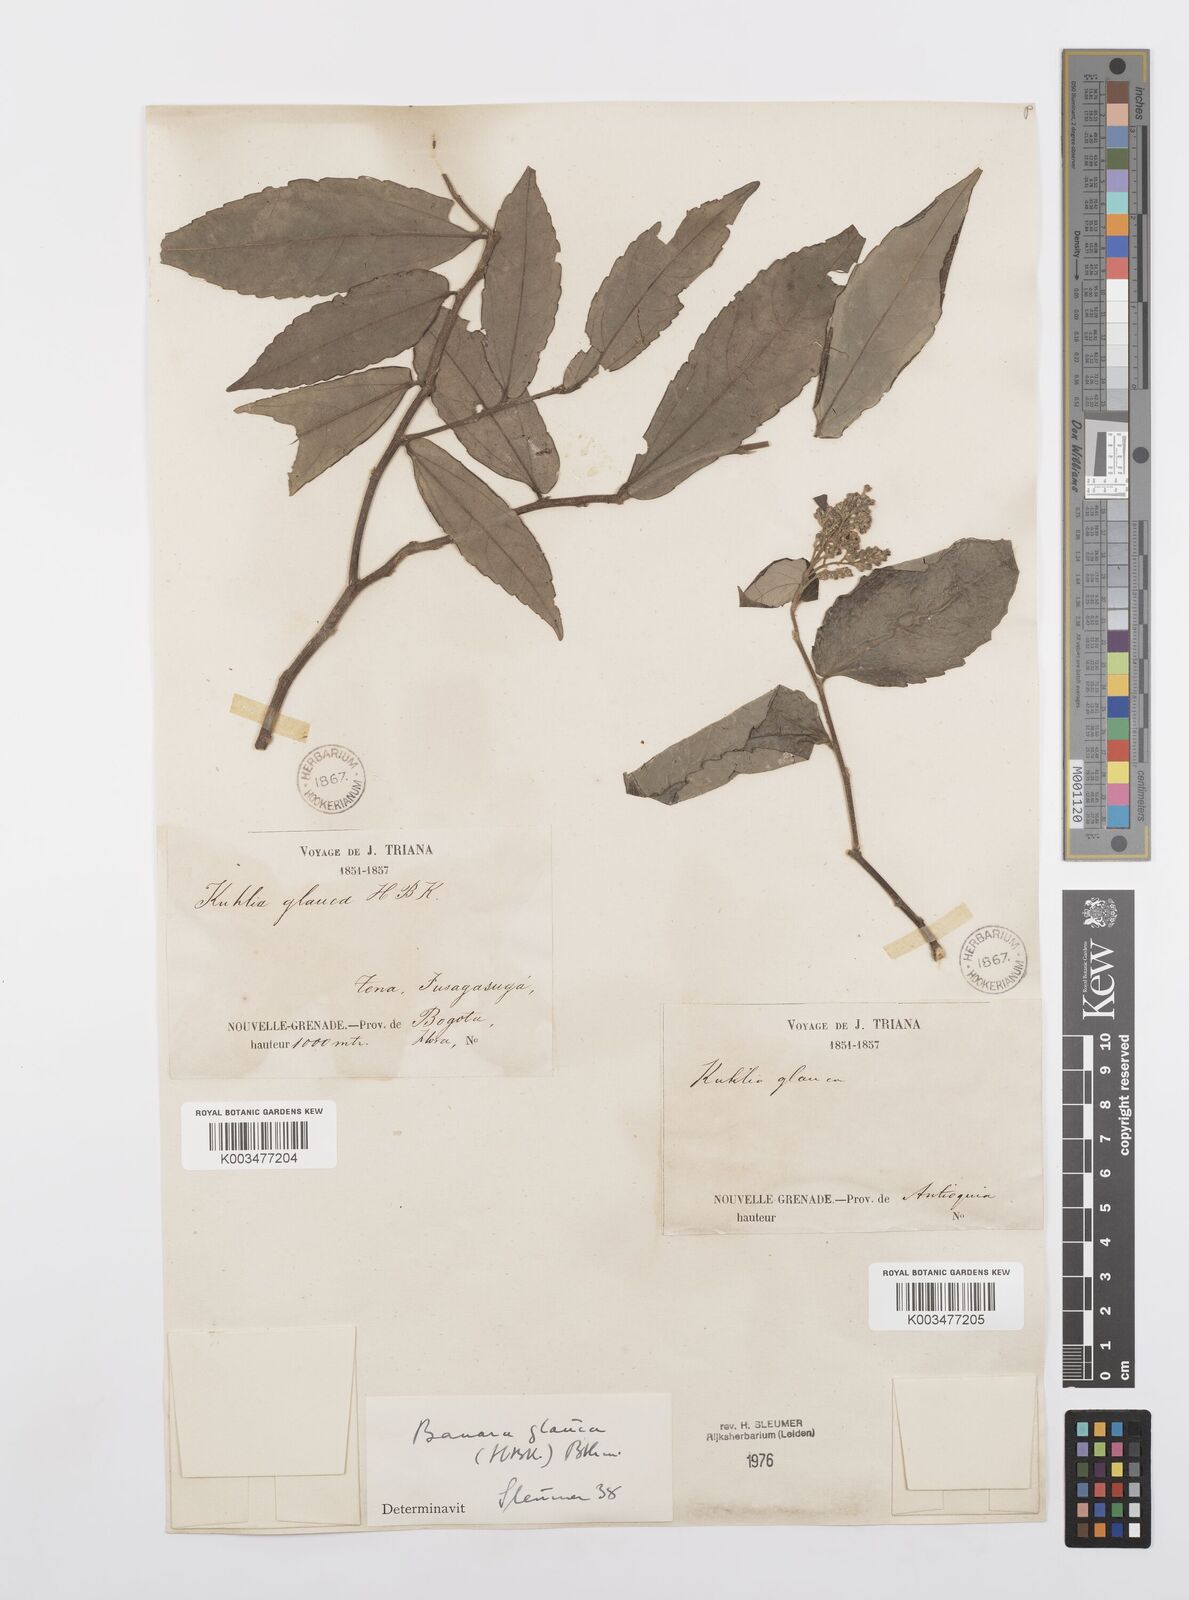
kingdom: Plantae
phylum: Tracheophyta
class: Magnoliopsida
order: Malpighiales
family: Salicaceae
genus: Banara
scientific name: Banara glauca
